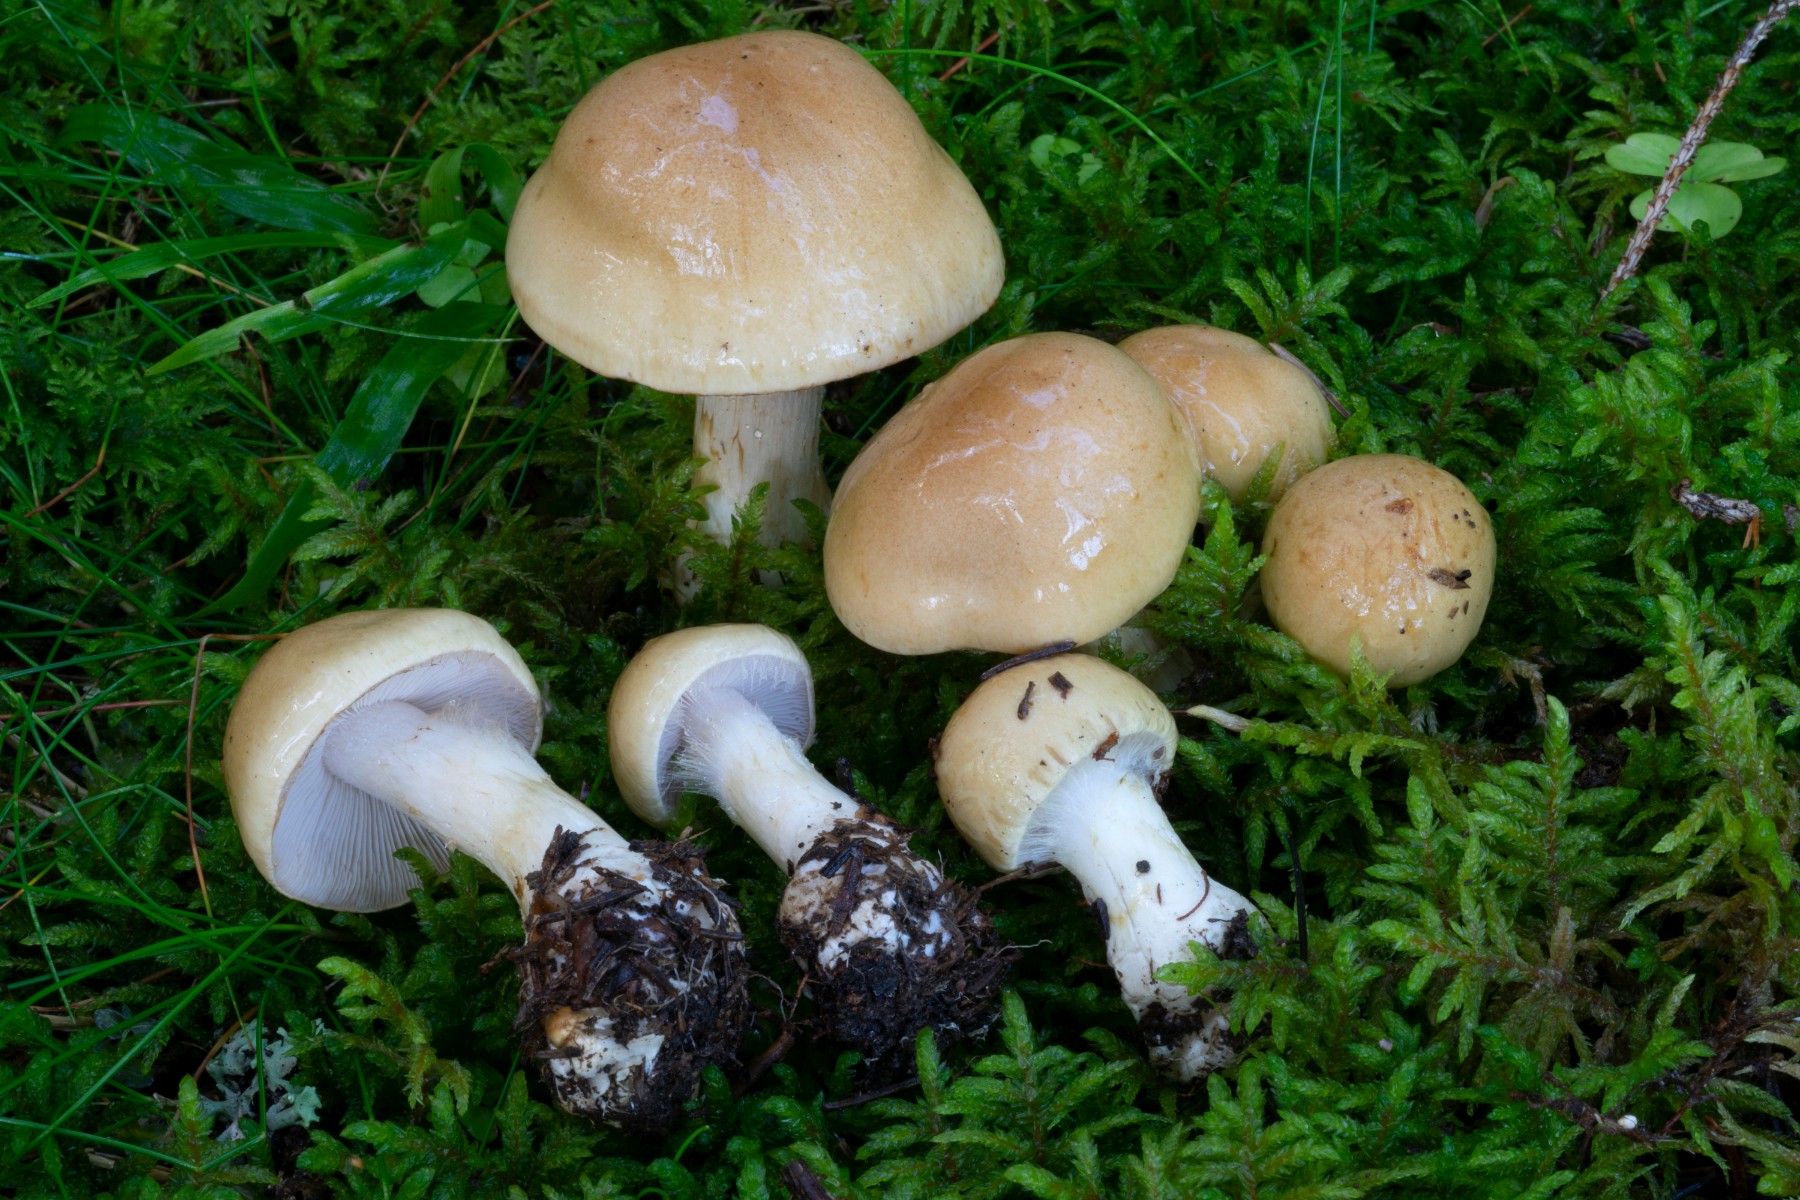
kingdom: Fungi
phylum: Basidiomycota
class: Agaricomycetes
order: Agaricales
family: Cortinariaceae
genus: Phlegmacium
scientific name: Phlegmacium olidoamethysteum
